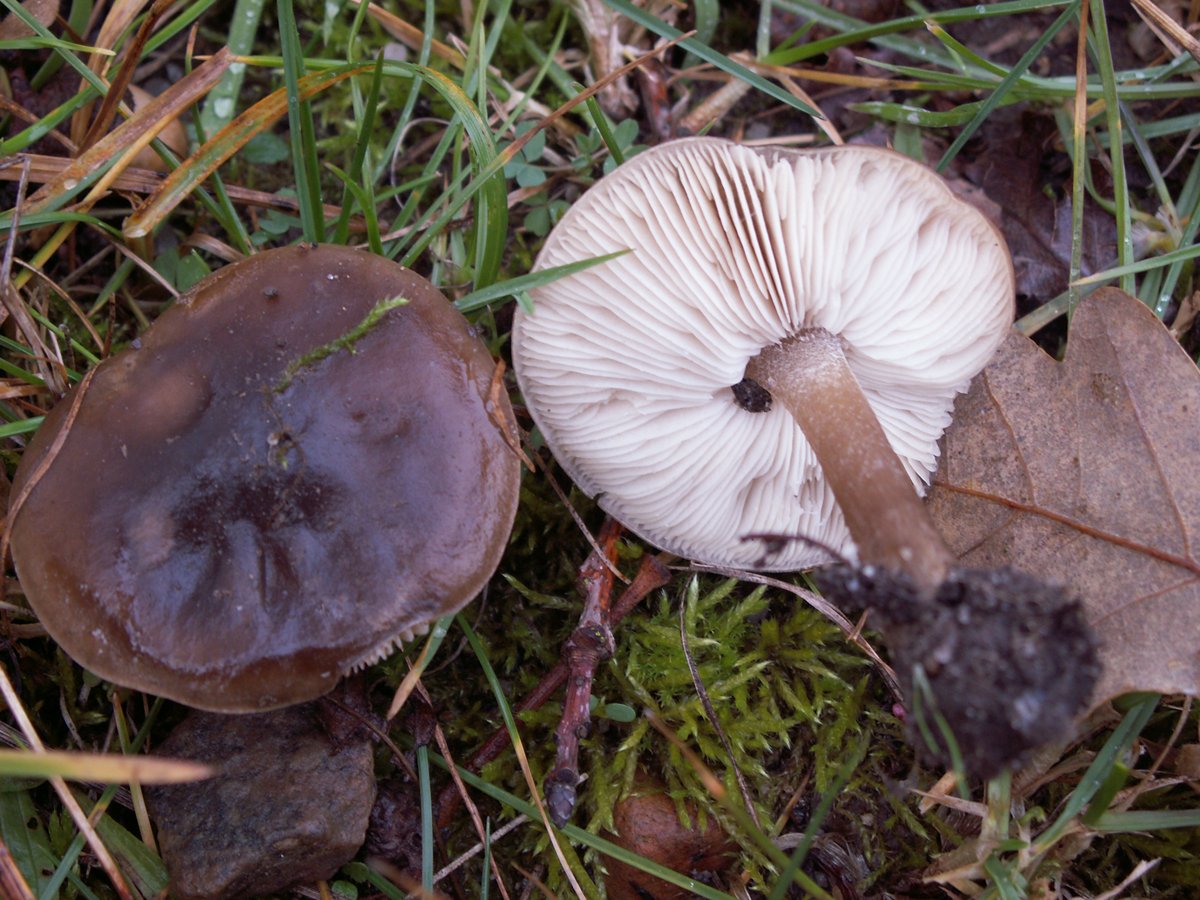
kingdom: Fungi
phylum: Basidiomycota
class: Agaricomycetes
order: Agaricales
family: Tricholomataceae
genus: Melanoleuca
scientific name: Melanoleuca polioleuca
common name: hvidbladet munkehat
